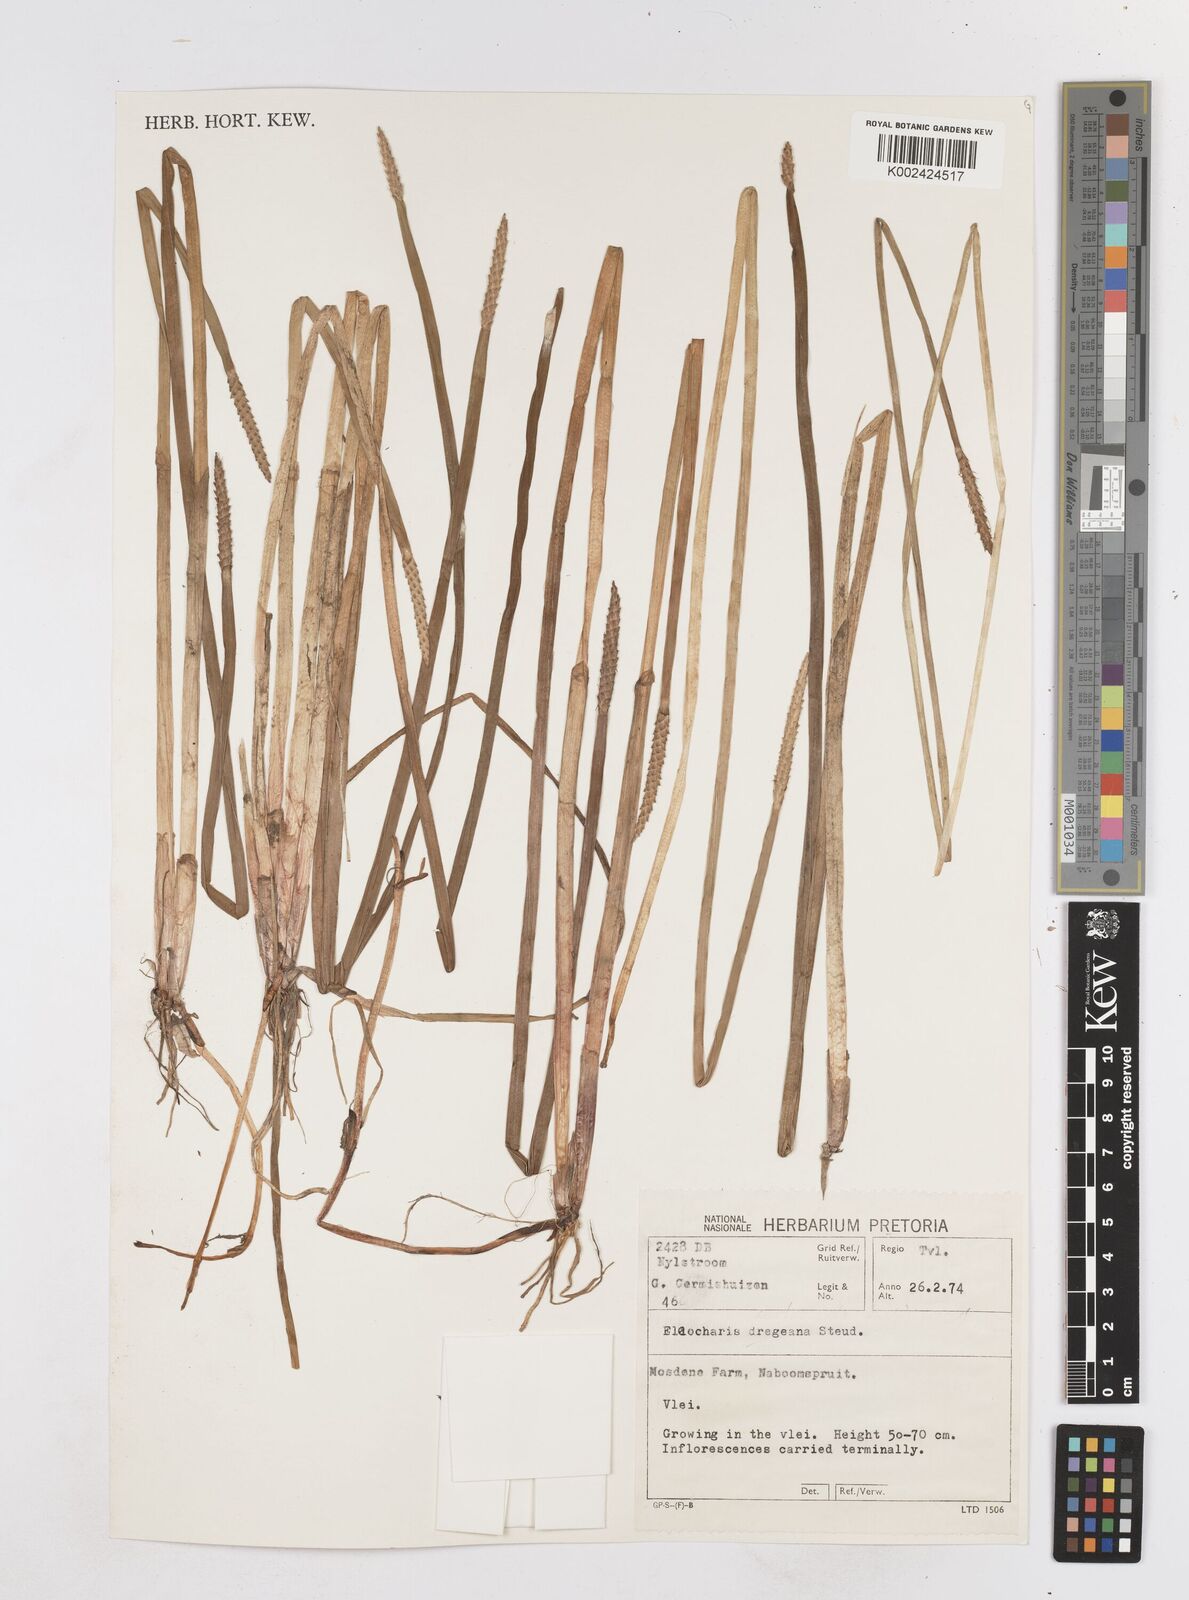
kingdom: Plantae
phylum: Tracheophyta
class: Liliopsida
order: Poales
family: Cyperaceae
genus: Eleocharis
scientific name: Eleocharis acutangula
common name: Acute spikerush
